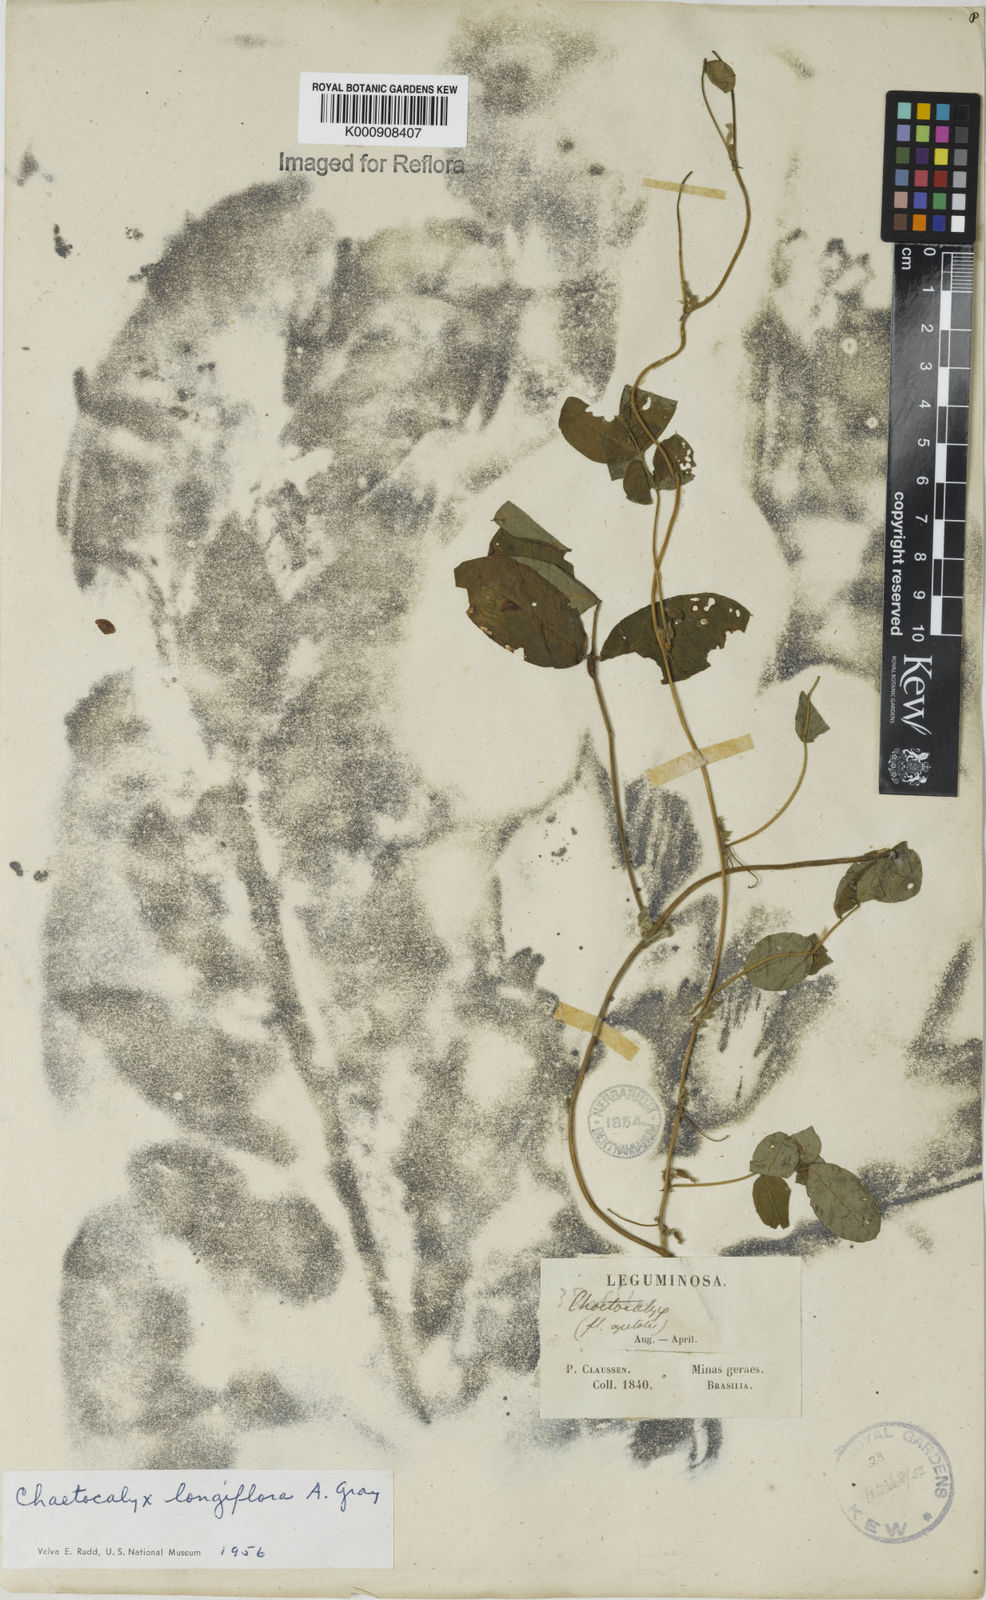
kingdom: Plantae
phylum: Tracheophyta
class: Magnoliopsida
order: Fabales
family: Fabaceae
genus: Nissolia
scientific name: Nissolia longiflora
